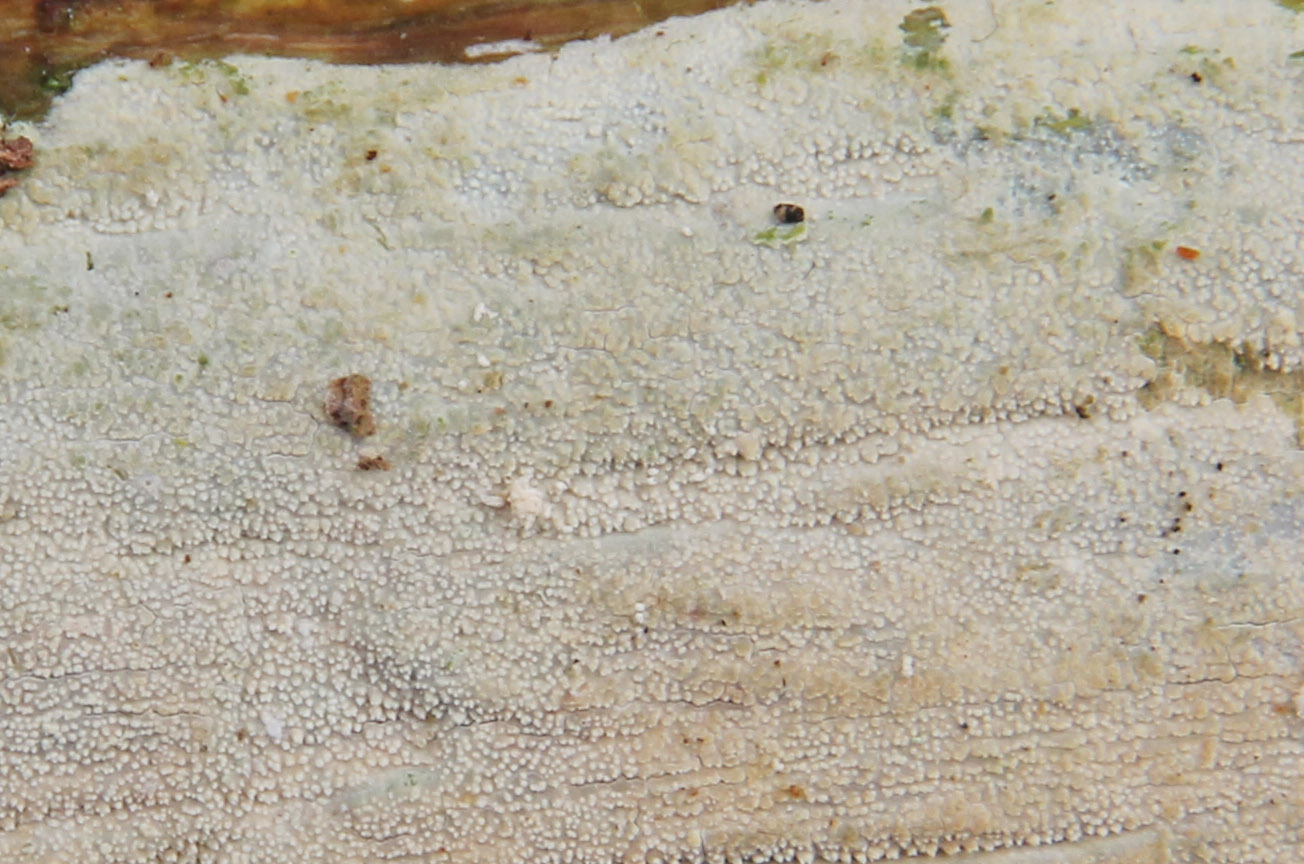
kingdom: Fungi
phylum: Basidiomycota
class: Agaricomycetes
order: Corticiales
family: Corticiaceae
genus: Lyomyces
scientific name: Lyomyces crustosus
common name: vortet hyldehinde
